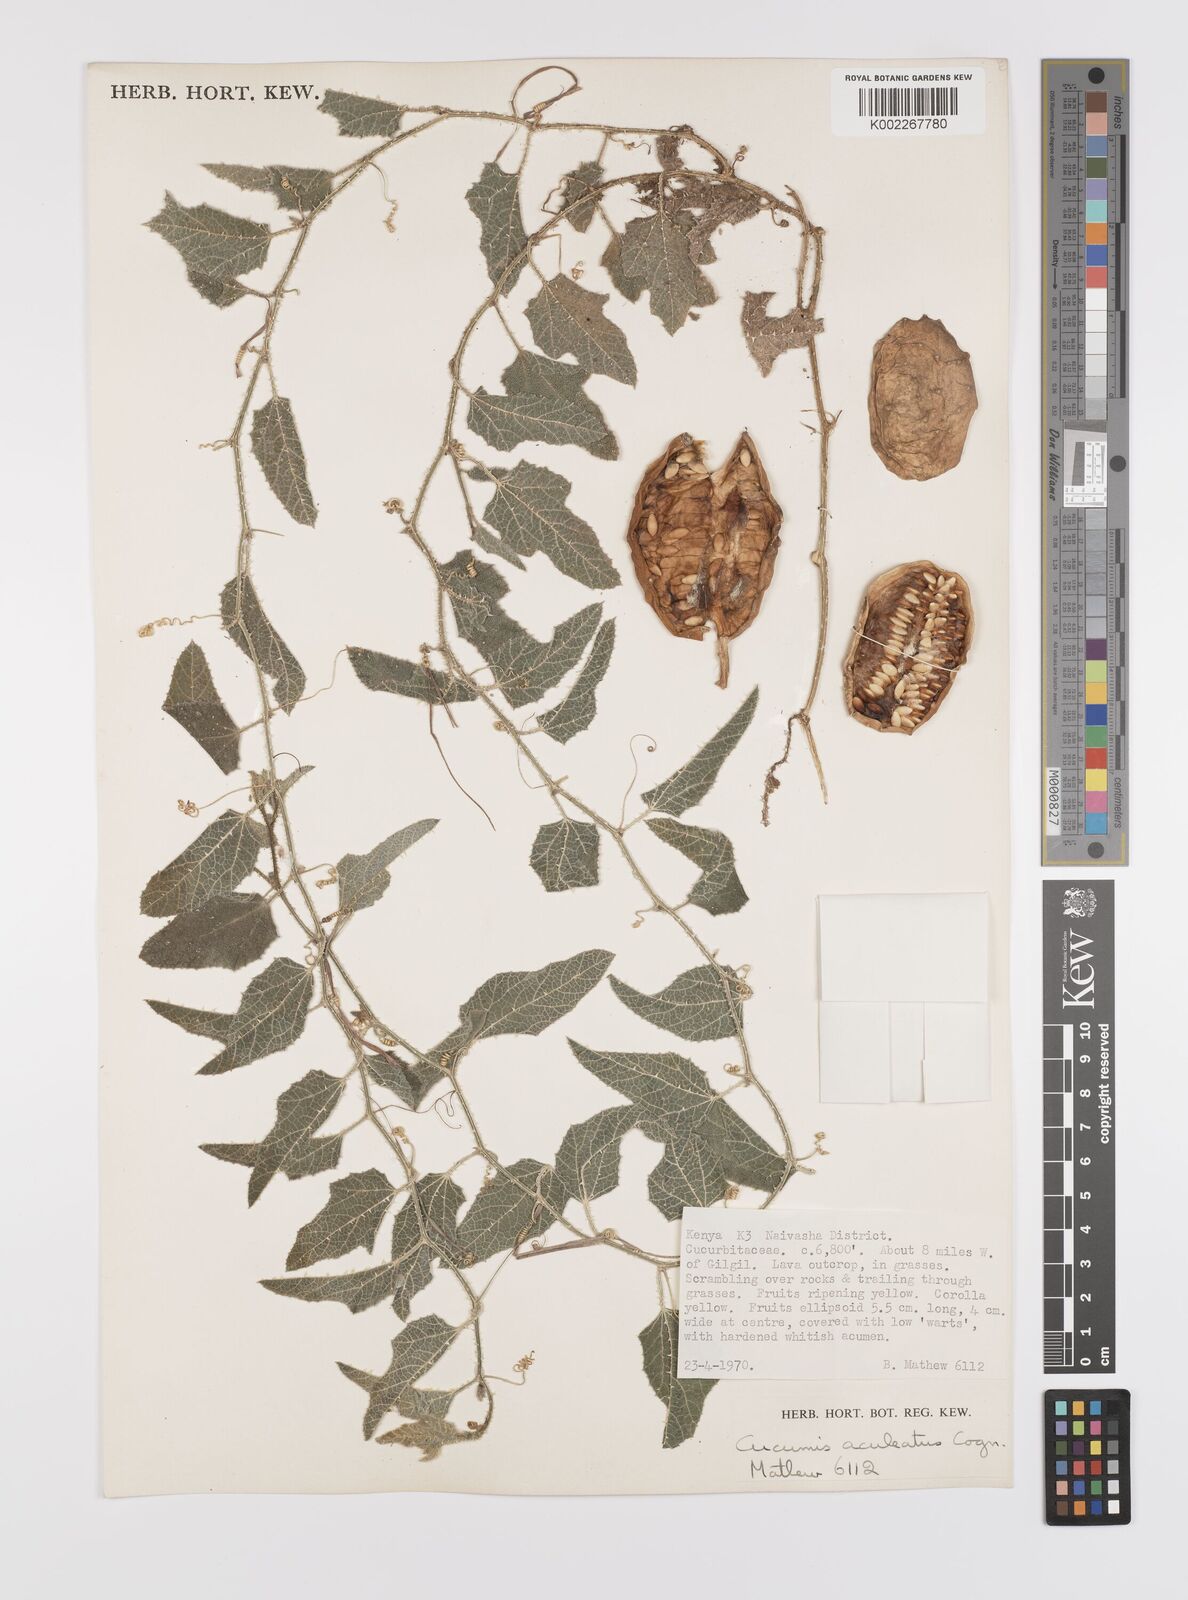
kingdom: Plantae
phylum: Tracheophyta
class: Magnoliopsida
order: Cucurbitales
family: Cucurbitaceae
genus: Cucumis
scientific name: Cucumis aculeatus
